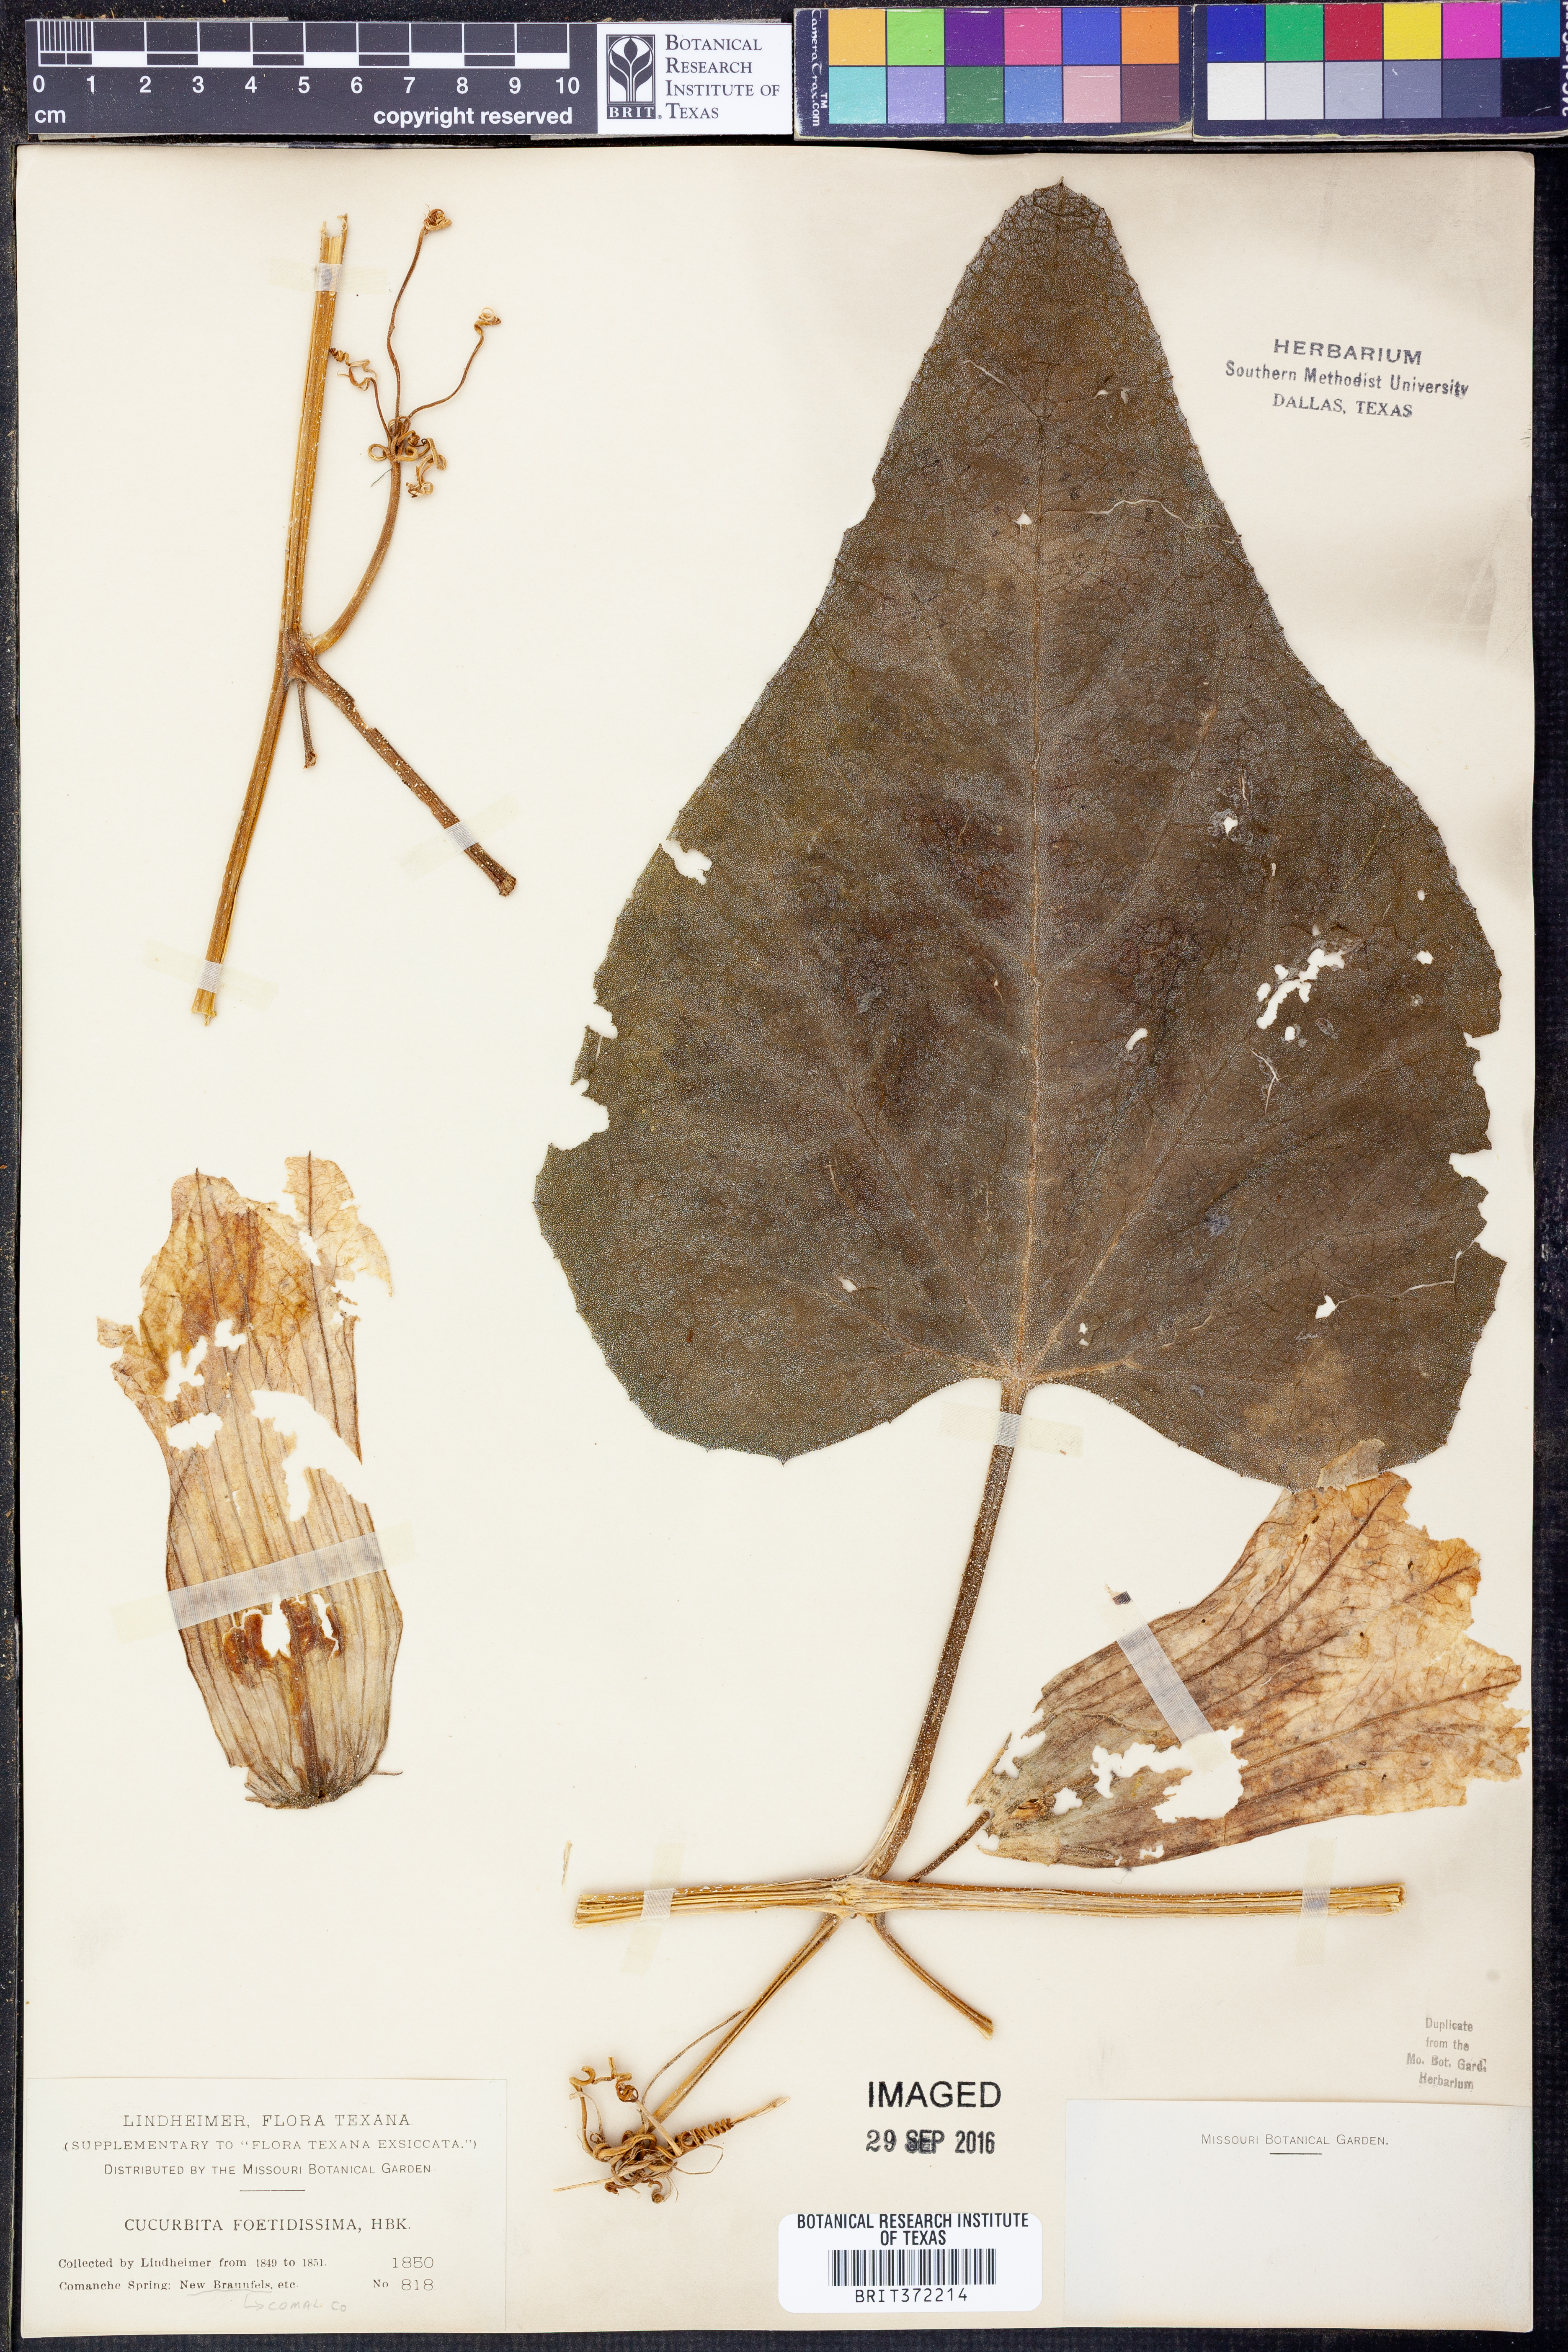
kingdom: Plantae
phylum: Tracheophyta
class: Magnoliopsida
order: Cucurbitales
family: Cucurbitaceae
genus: Cucurbita
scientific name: Cucurbita foetidissima
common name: Buffalo gourd
